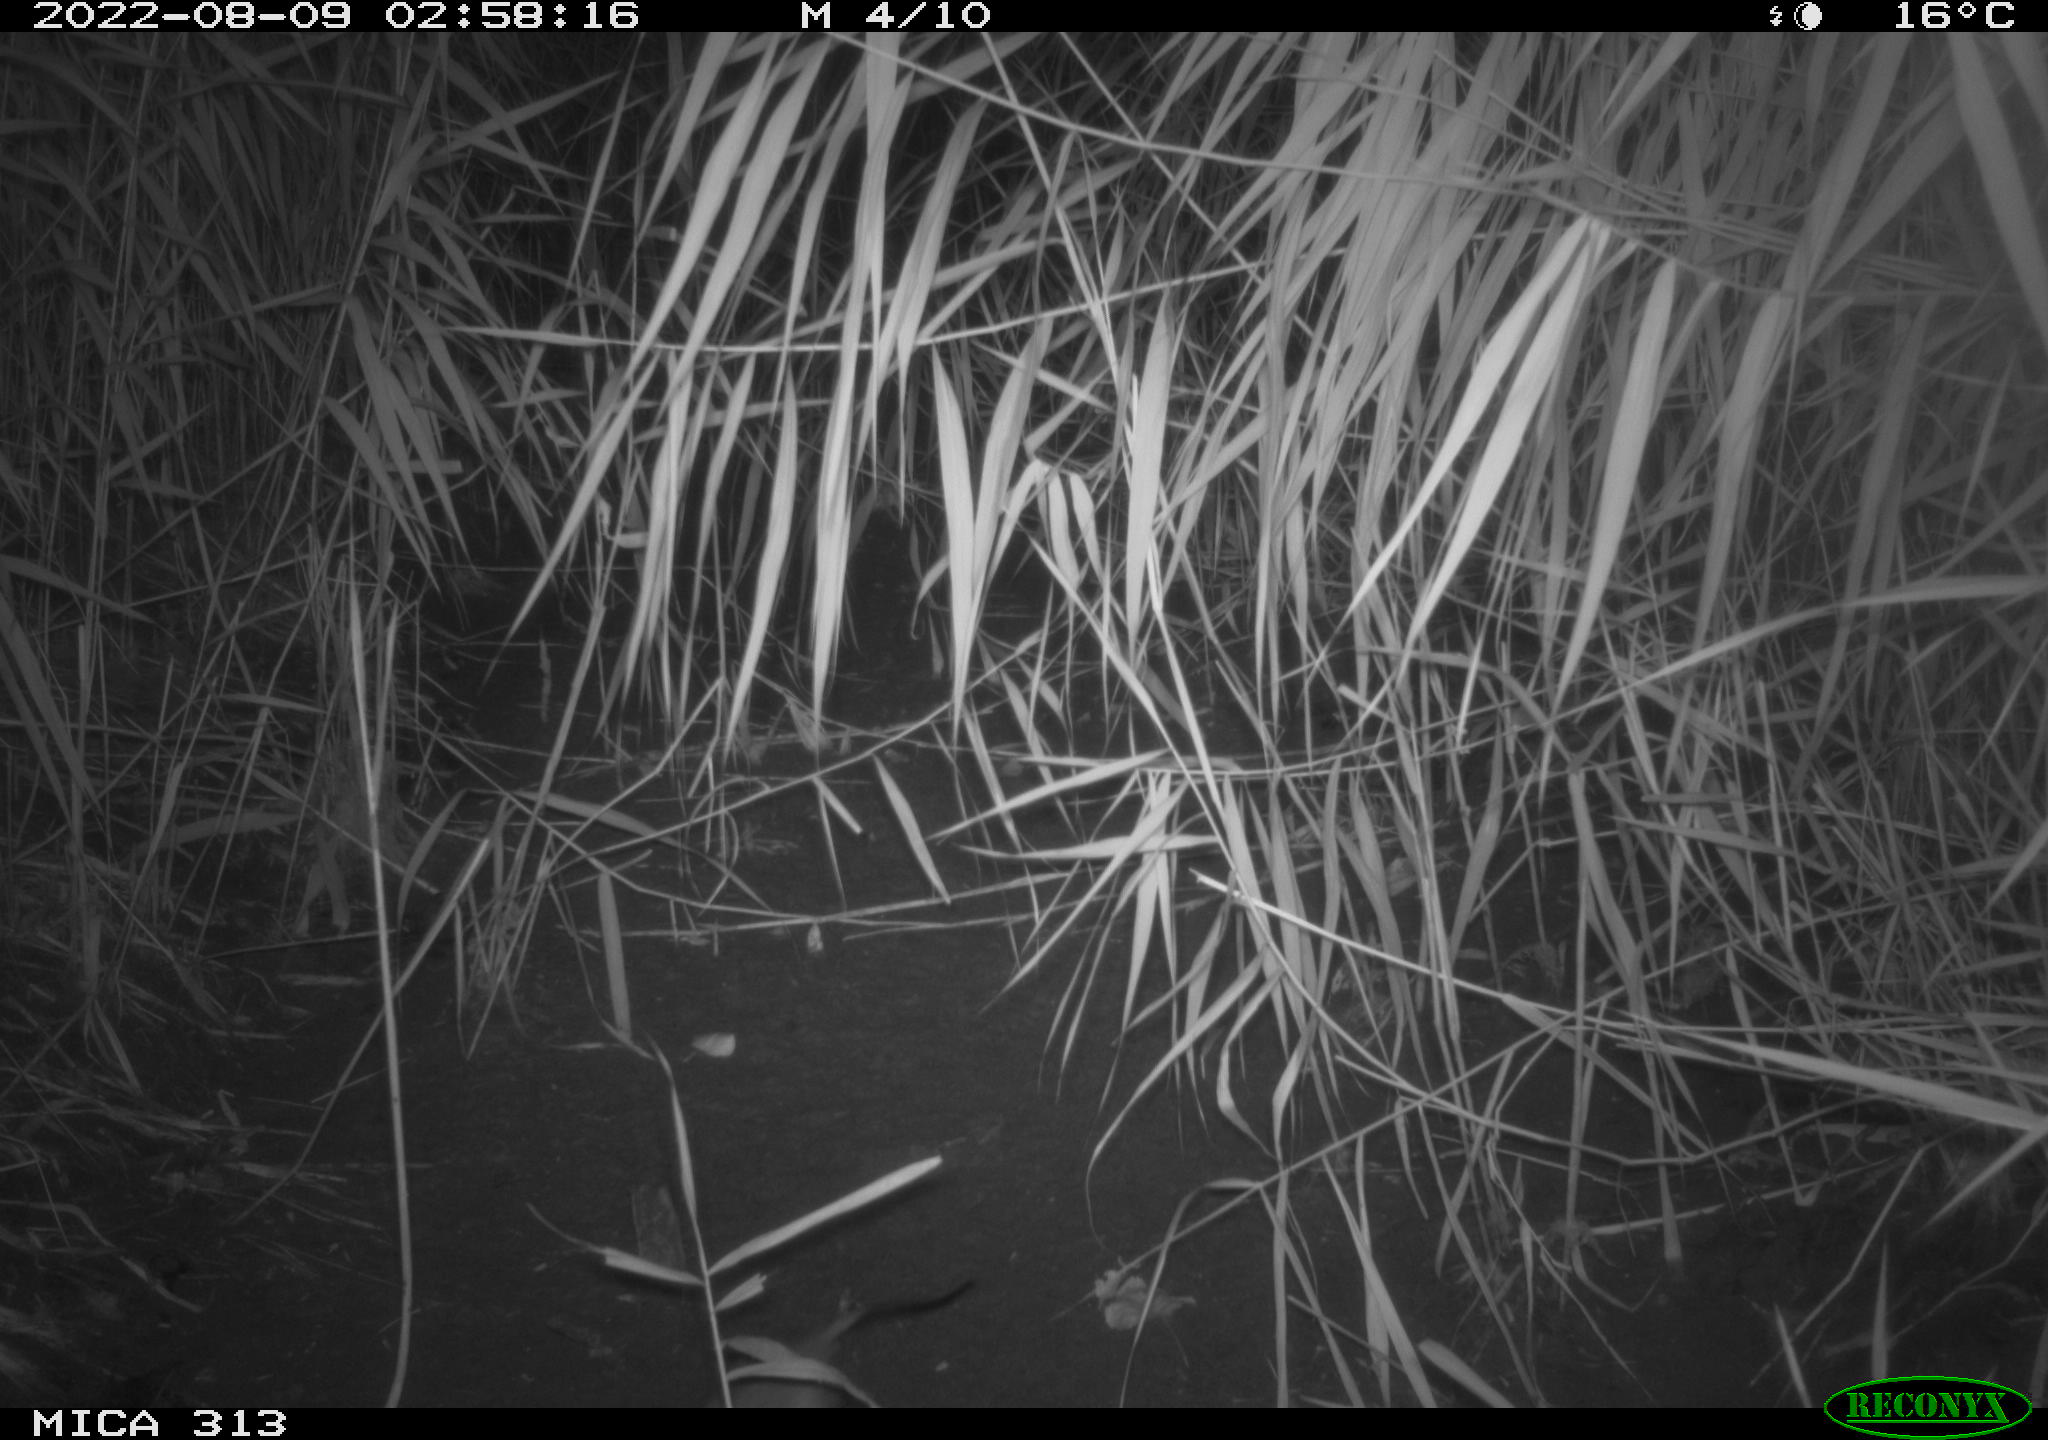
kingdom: Animalia
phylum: Chordata
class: Mammalia
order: Rodentia
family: Muridae
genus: Rattus
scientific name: Rattus norvegicus
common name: Brown rat
